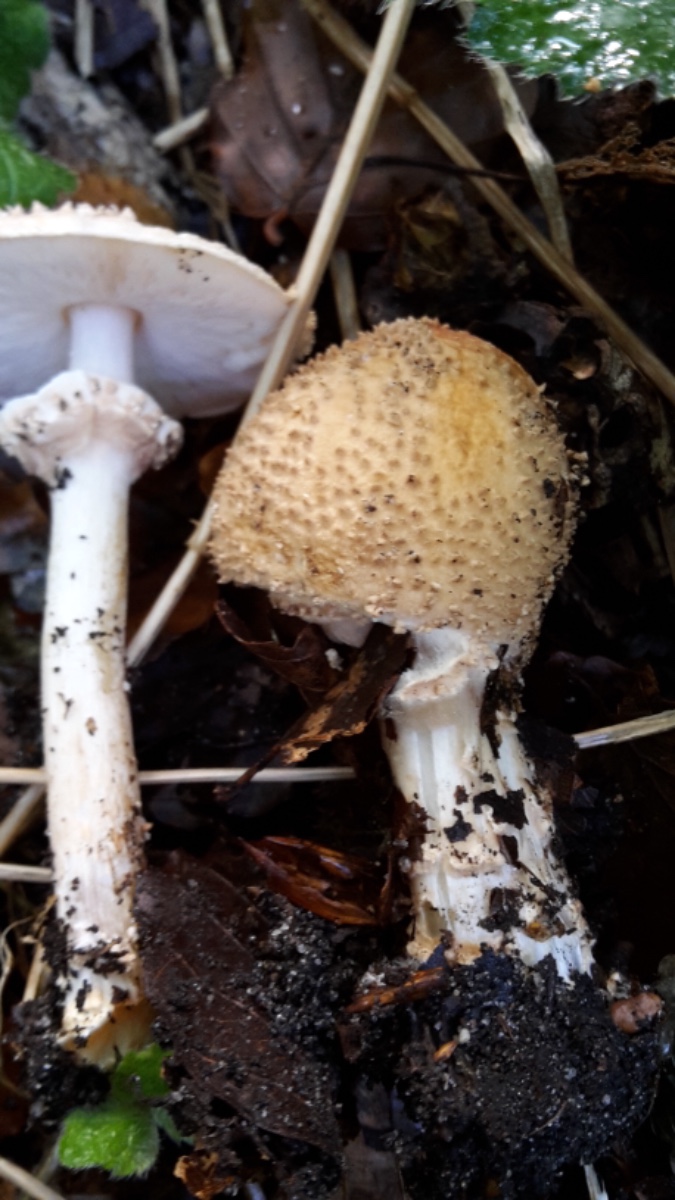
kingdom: Fungi
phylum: Basidiomycota
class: Agaricomycetes
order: Agaricales
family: Agaricaceae
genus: Echinoderma
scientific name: Echinoderma asperum
